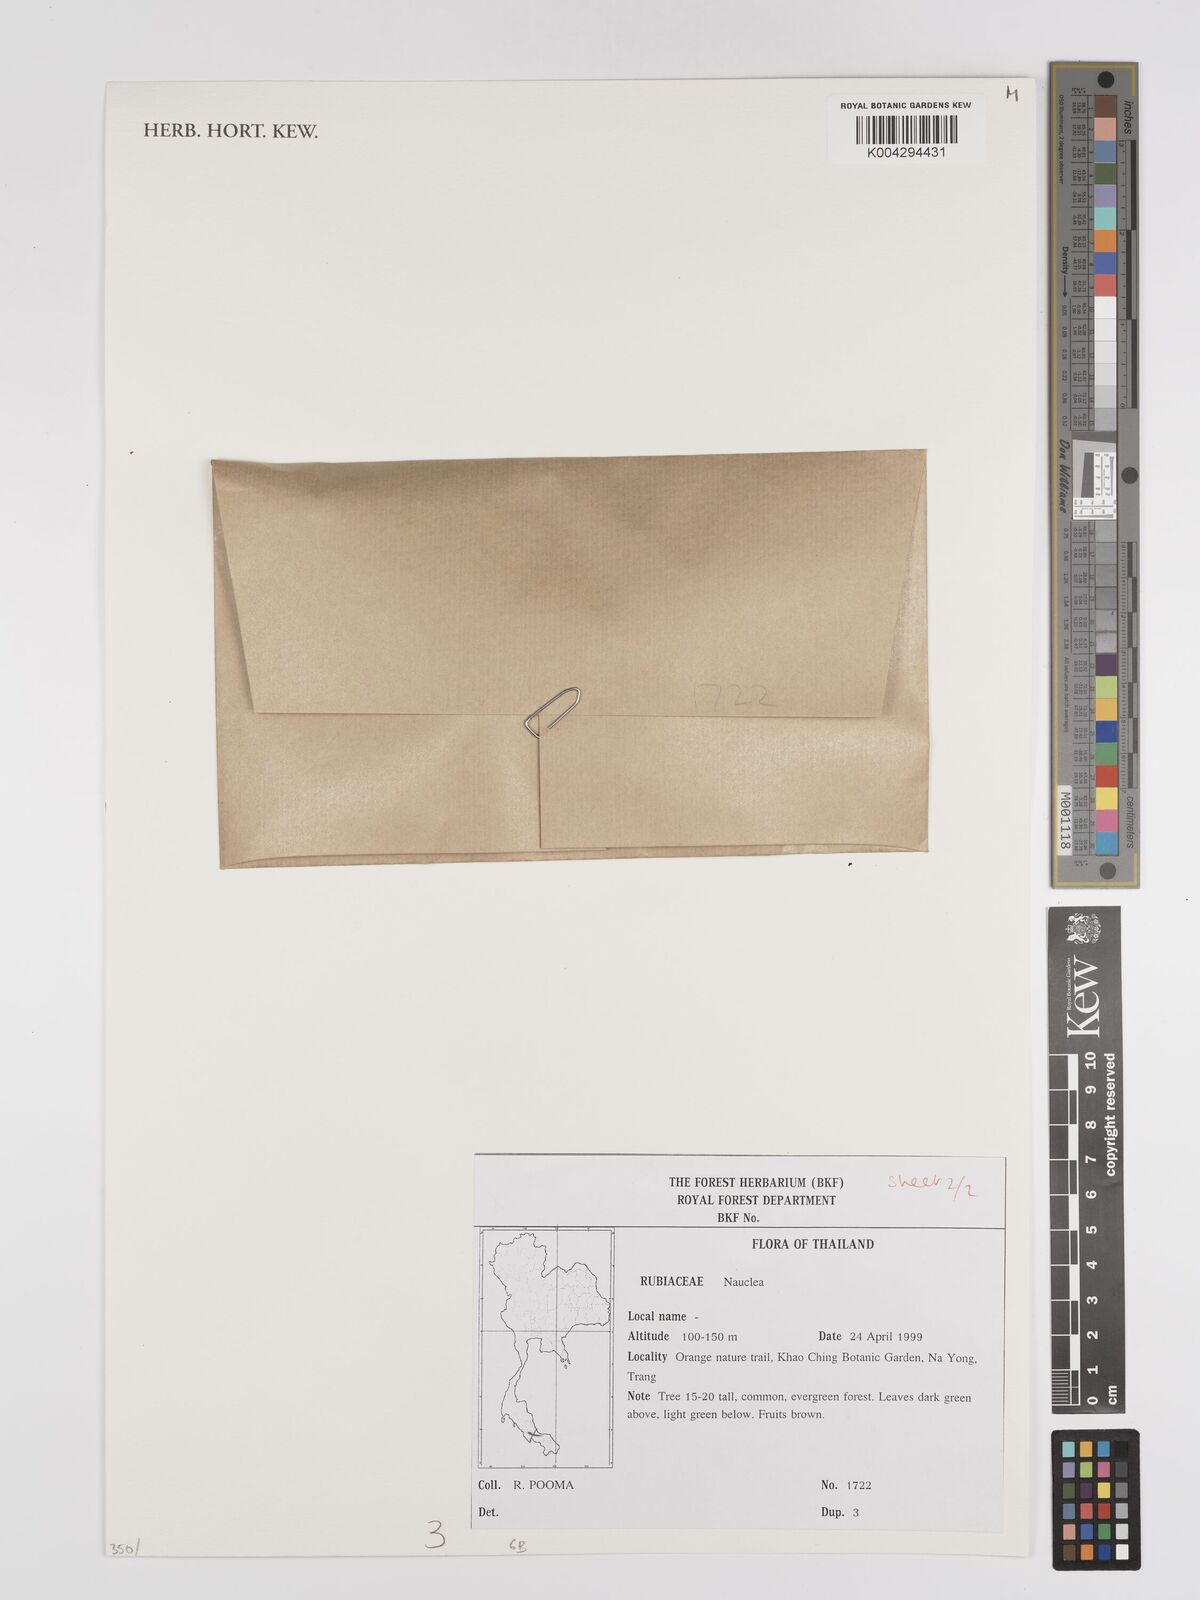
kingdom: Plantae
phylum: Tracheophyta
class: Magnoliopsida
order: Gentianales
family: Rubiaceae
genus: Nauclea
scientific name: Nauclea
